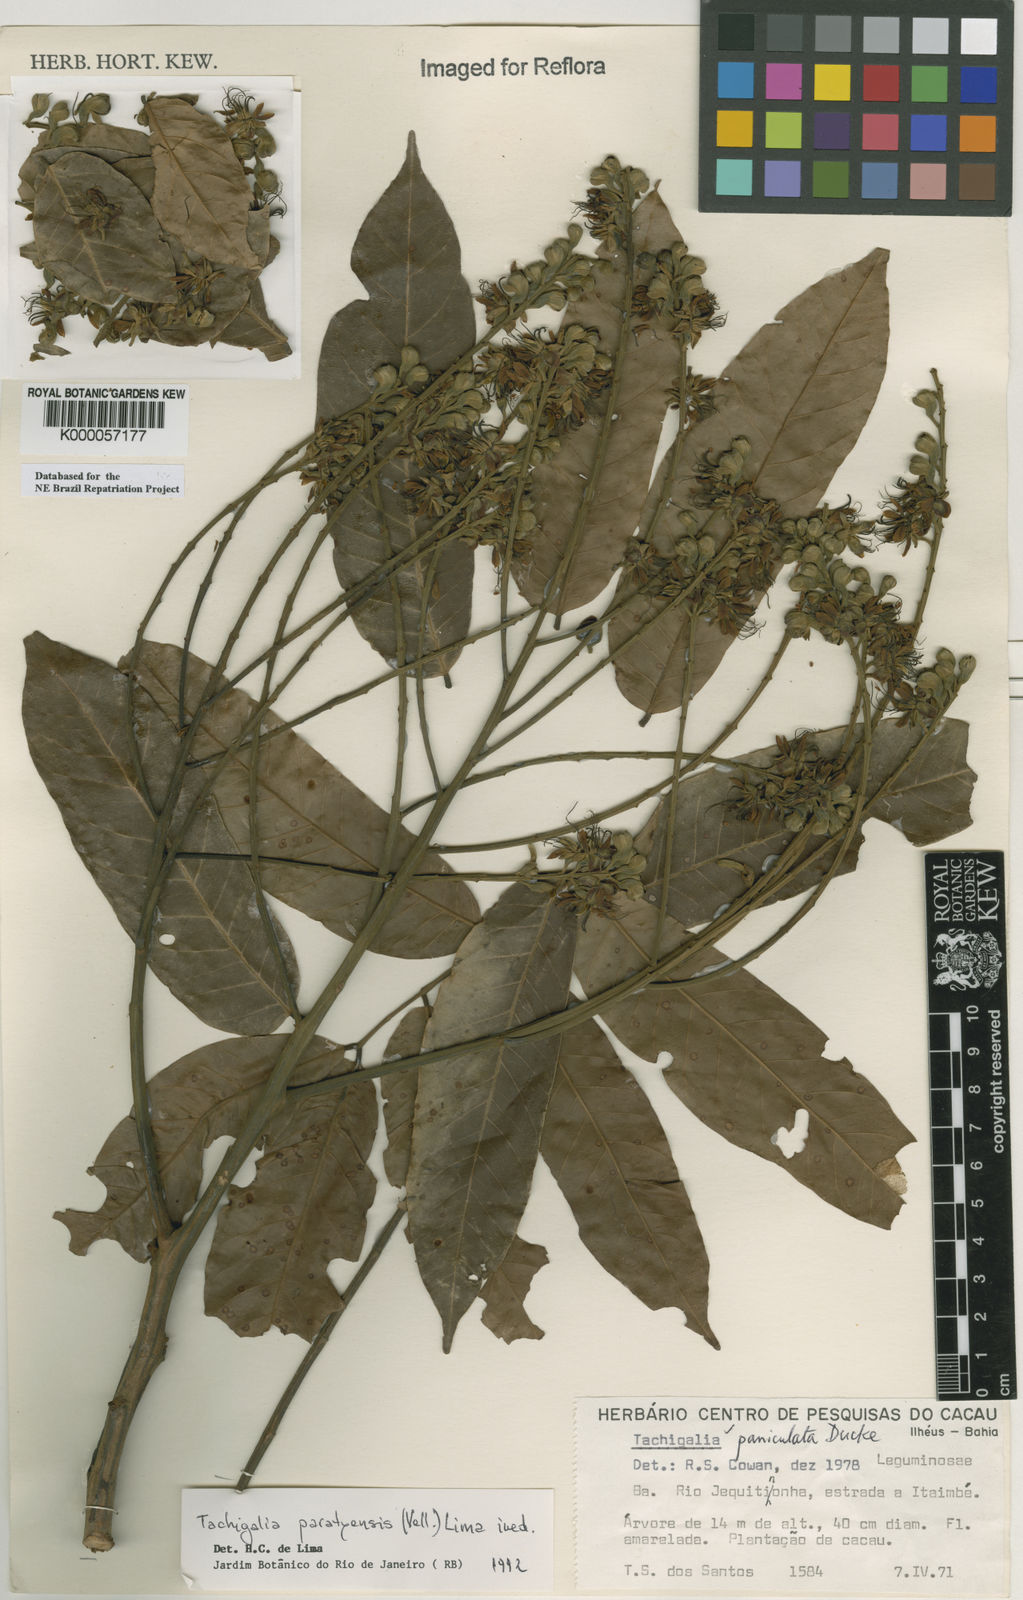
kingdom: Plantae
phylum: Tracheophyta
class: Magnoliopsida
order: Fabales
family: Fabaceae
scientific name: Fabaceae
